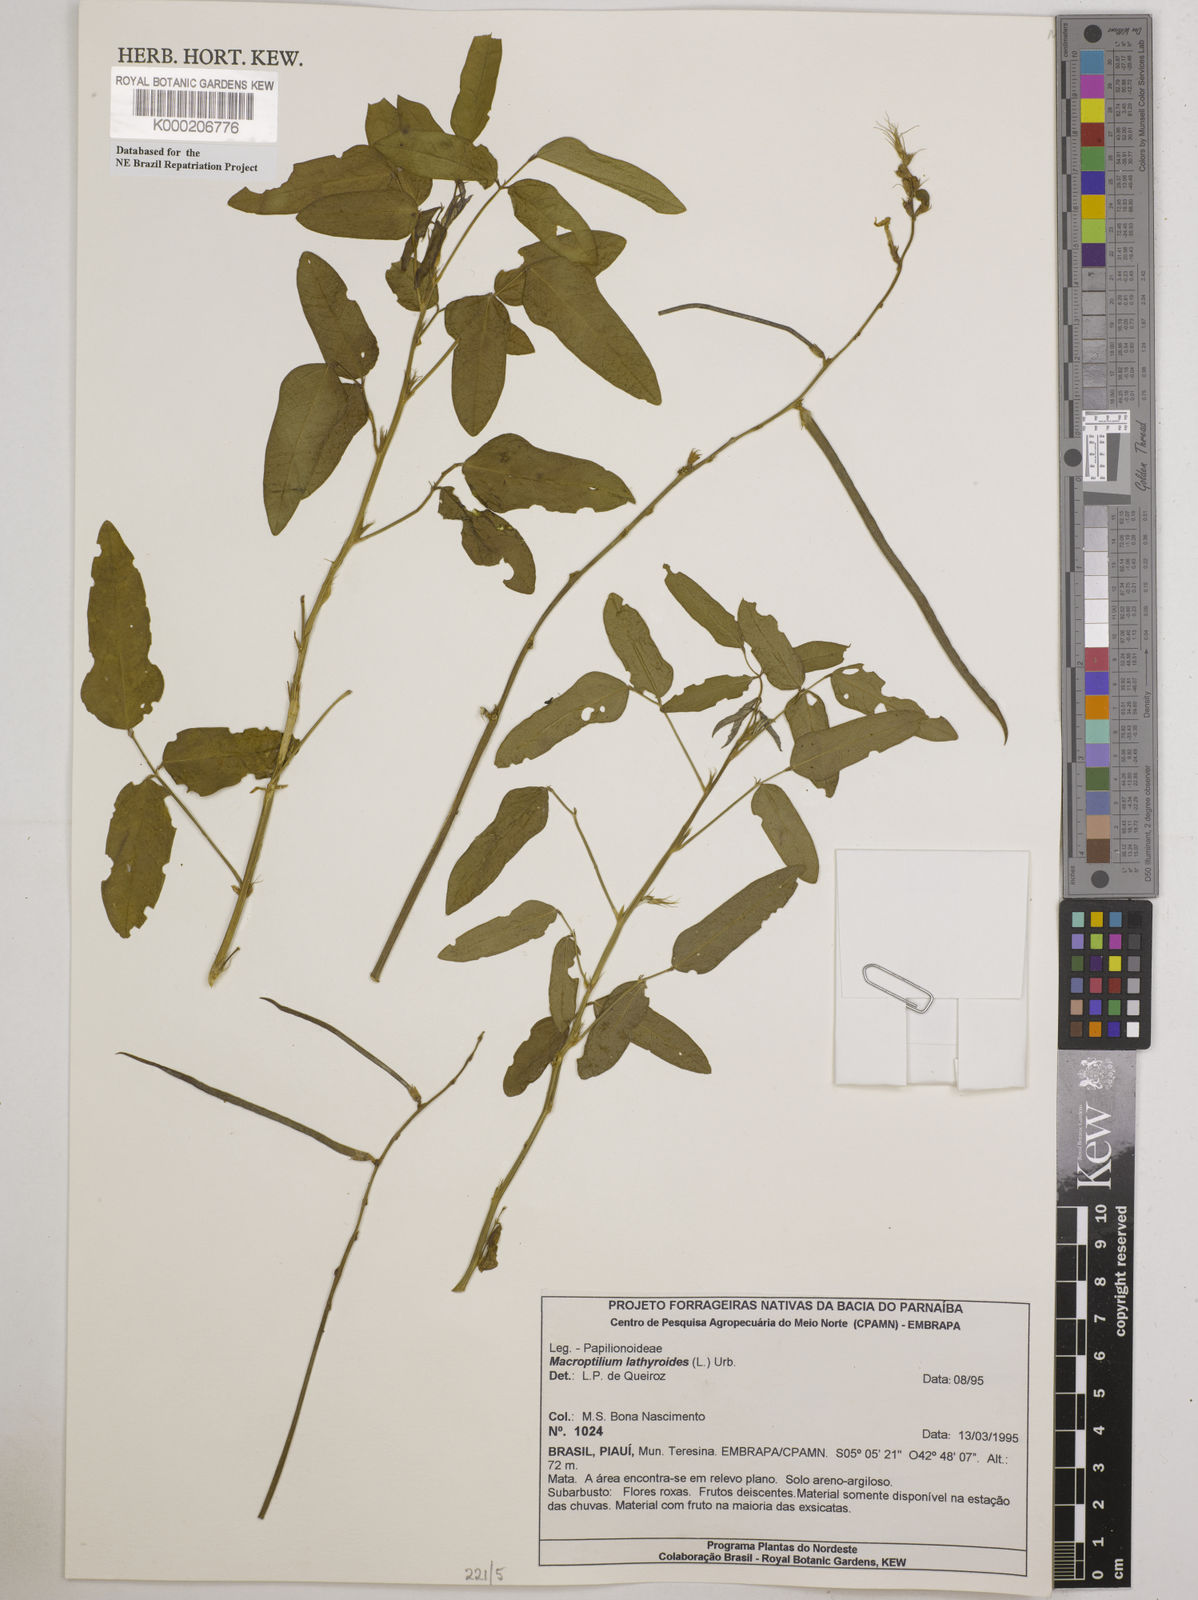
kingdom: Plantae
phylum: Tracheophyta
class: Magnoliopsida
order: Fabales
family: Fabaceae
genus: Macroptilium
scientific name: Macroptilium lathyroides
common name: Wild bushbean
